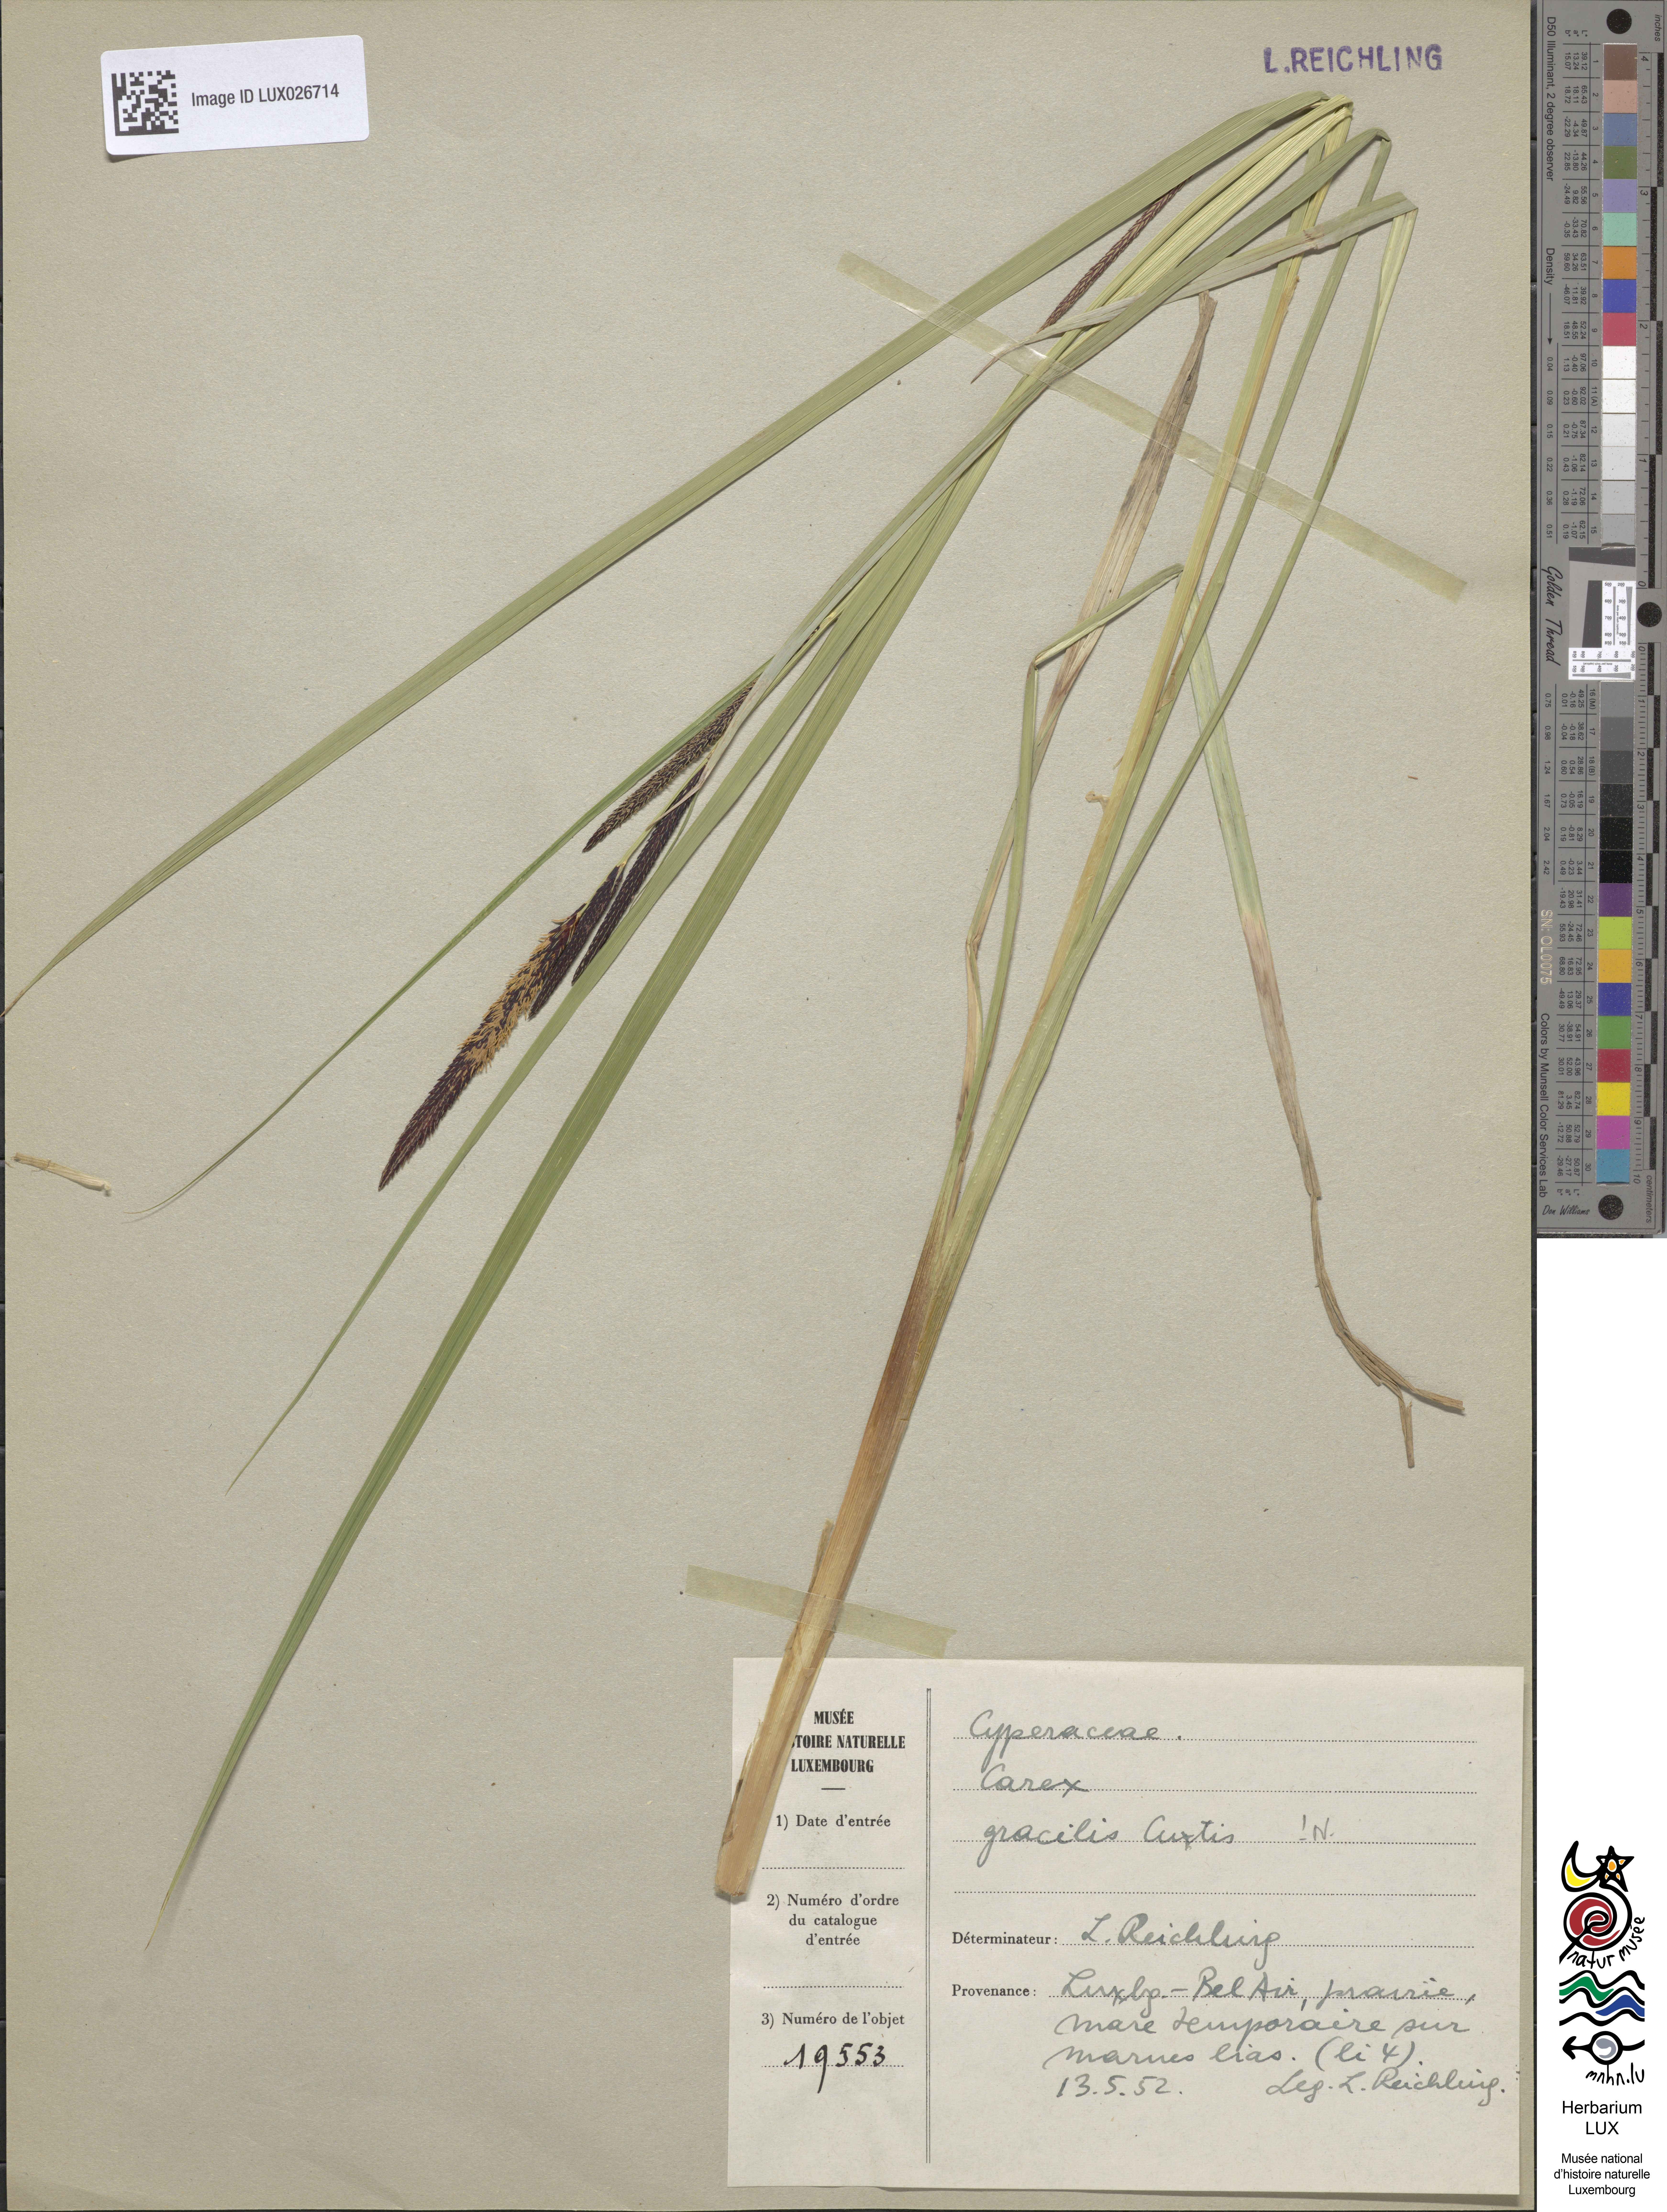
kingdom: Plantae
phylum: Tracheophyta
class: Liliopsida
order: Poales
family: Cyperaceae
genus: Carex
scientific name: Carex acuta
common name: Slender tufted-sedge
